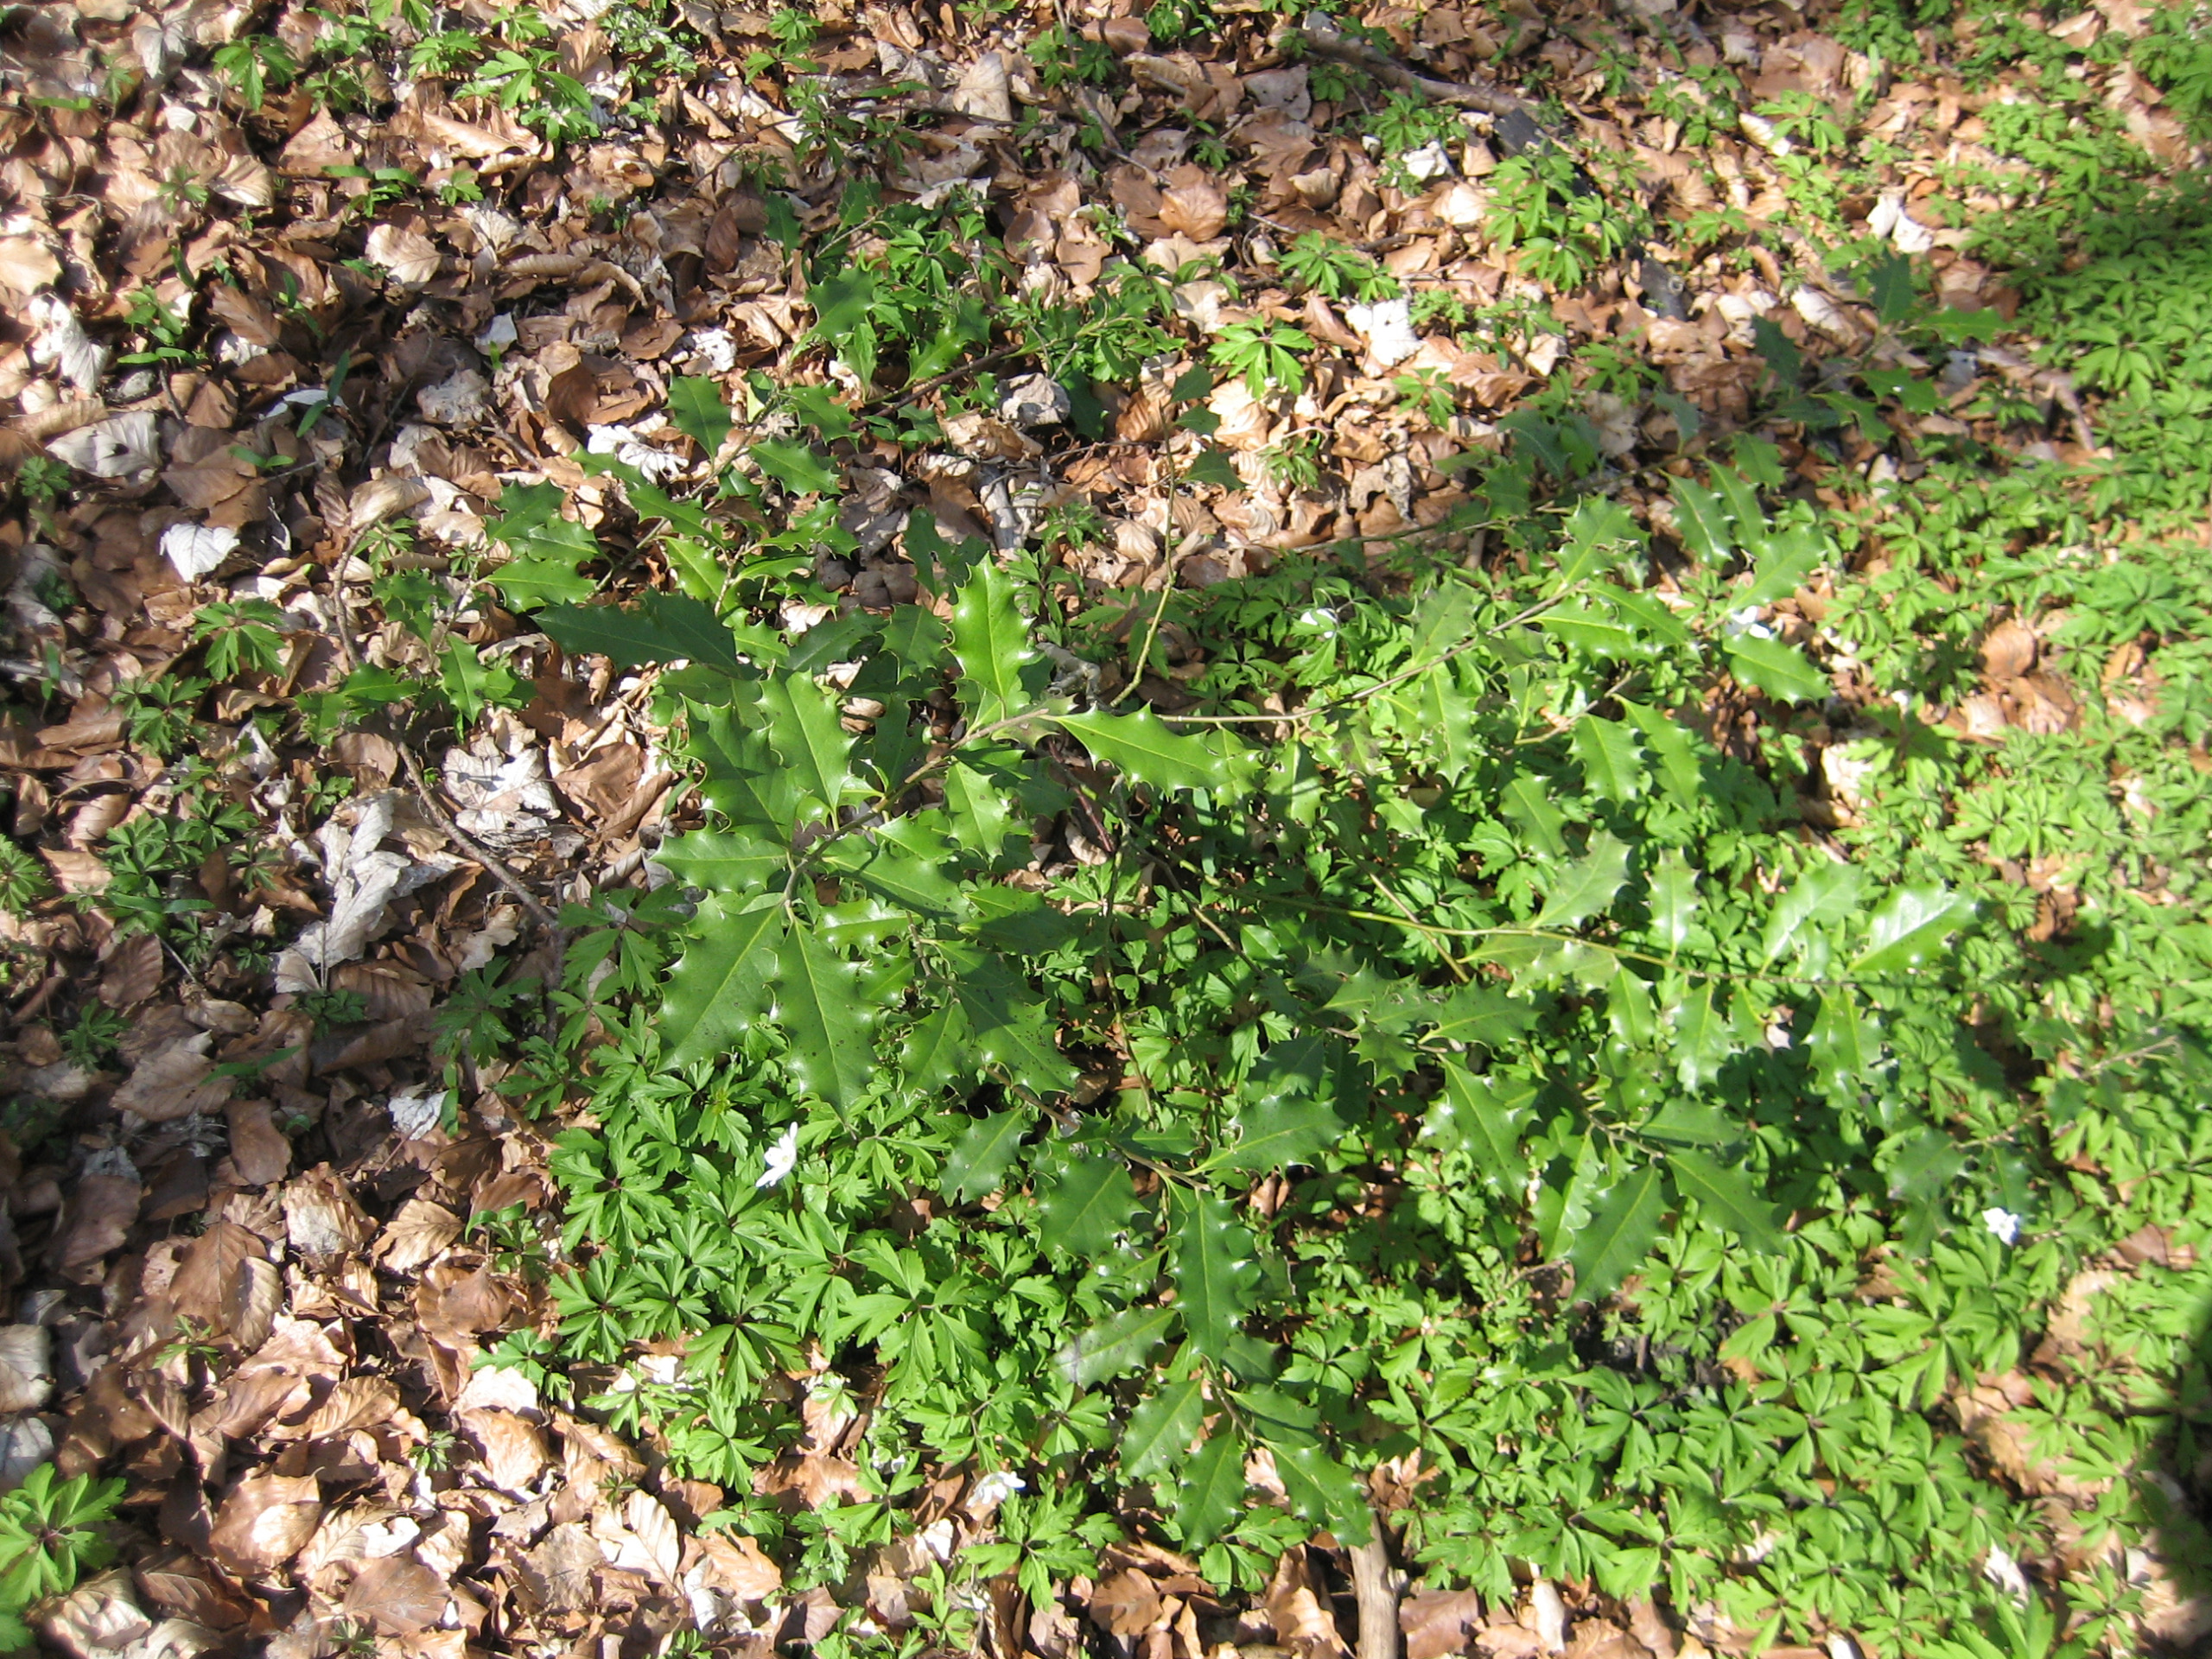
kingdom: Plantae
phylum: Tracheophyta
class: Magnoliopsida
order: Aquifoliales
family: Aquifoliaceae
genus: Ilex
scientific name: Ilex aquifolium
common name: Kristtorn
